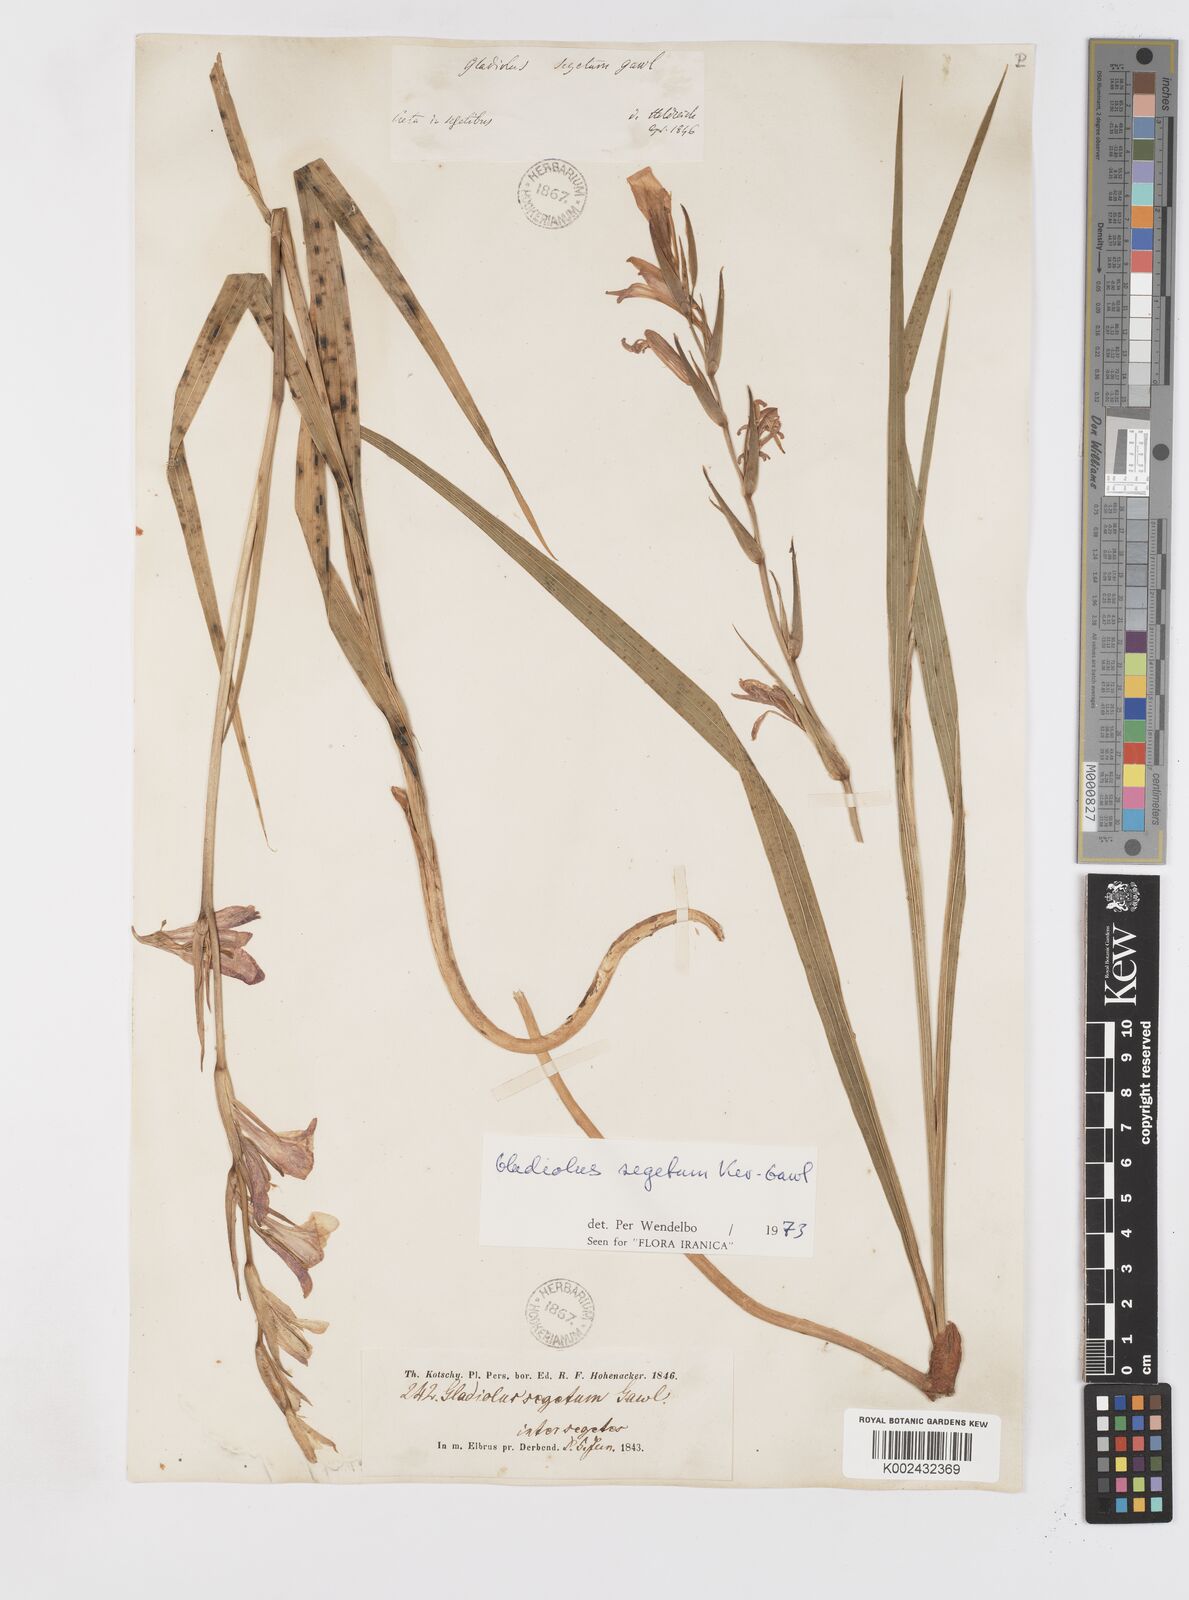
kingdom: Plantae
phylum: Tracheophyta
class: Liliopsida
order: Asparagales
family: Iridaceae
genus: Gladiolus
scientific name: Gladiolus italicus
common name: Field gladiolus
